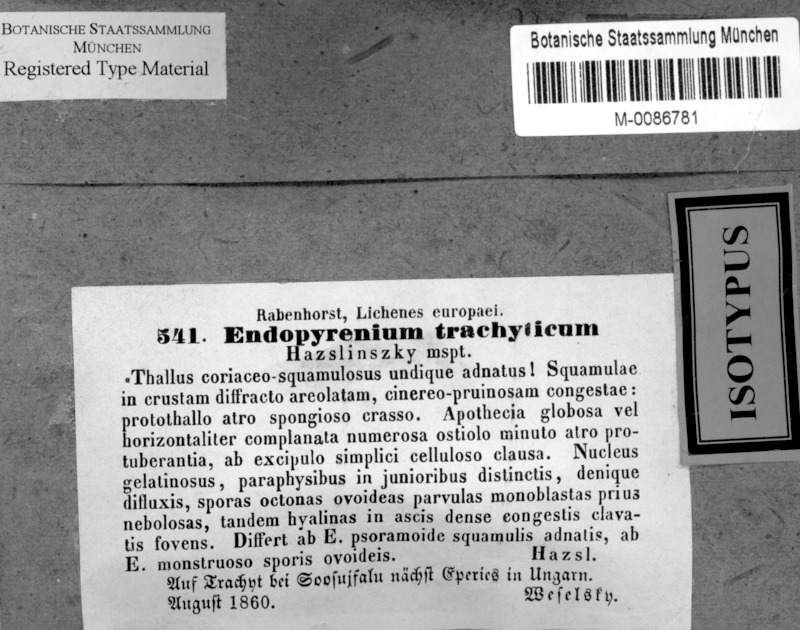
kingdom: Fungi
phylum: Ascomycota
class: Eurotiomycetes
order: Verrucariales
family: Verrucariaceae
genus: Placopyrenium
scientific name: Placopyrenium trachyticum
